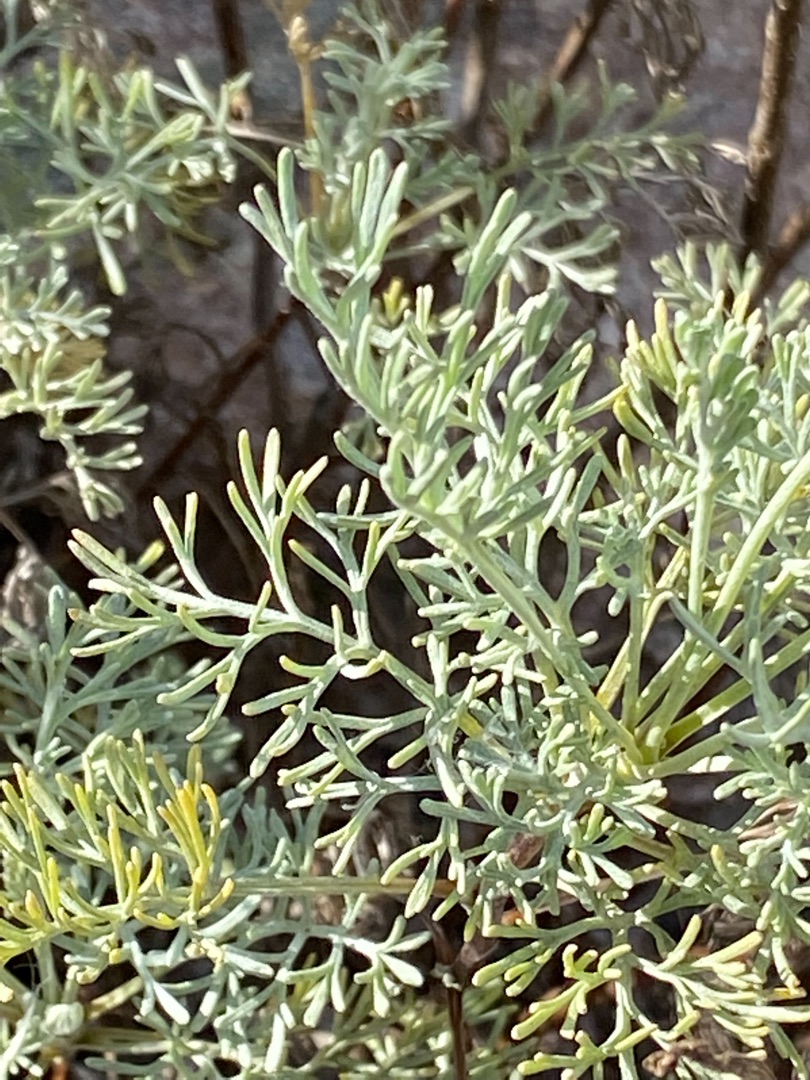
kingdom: Plantae
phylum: Tracheophyta
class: Magnoliopsida
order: Asterales
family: Asteraceae
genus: Artemisia
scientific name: Artemisia maritima
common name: Strandmalurt
